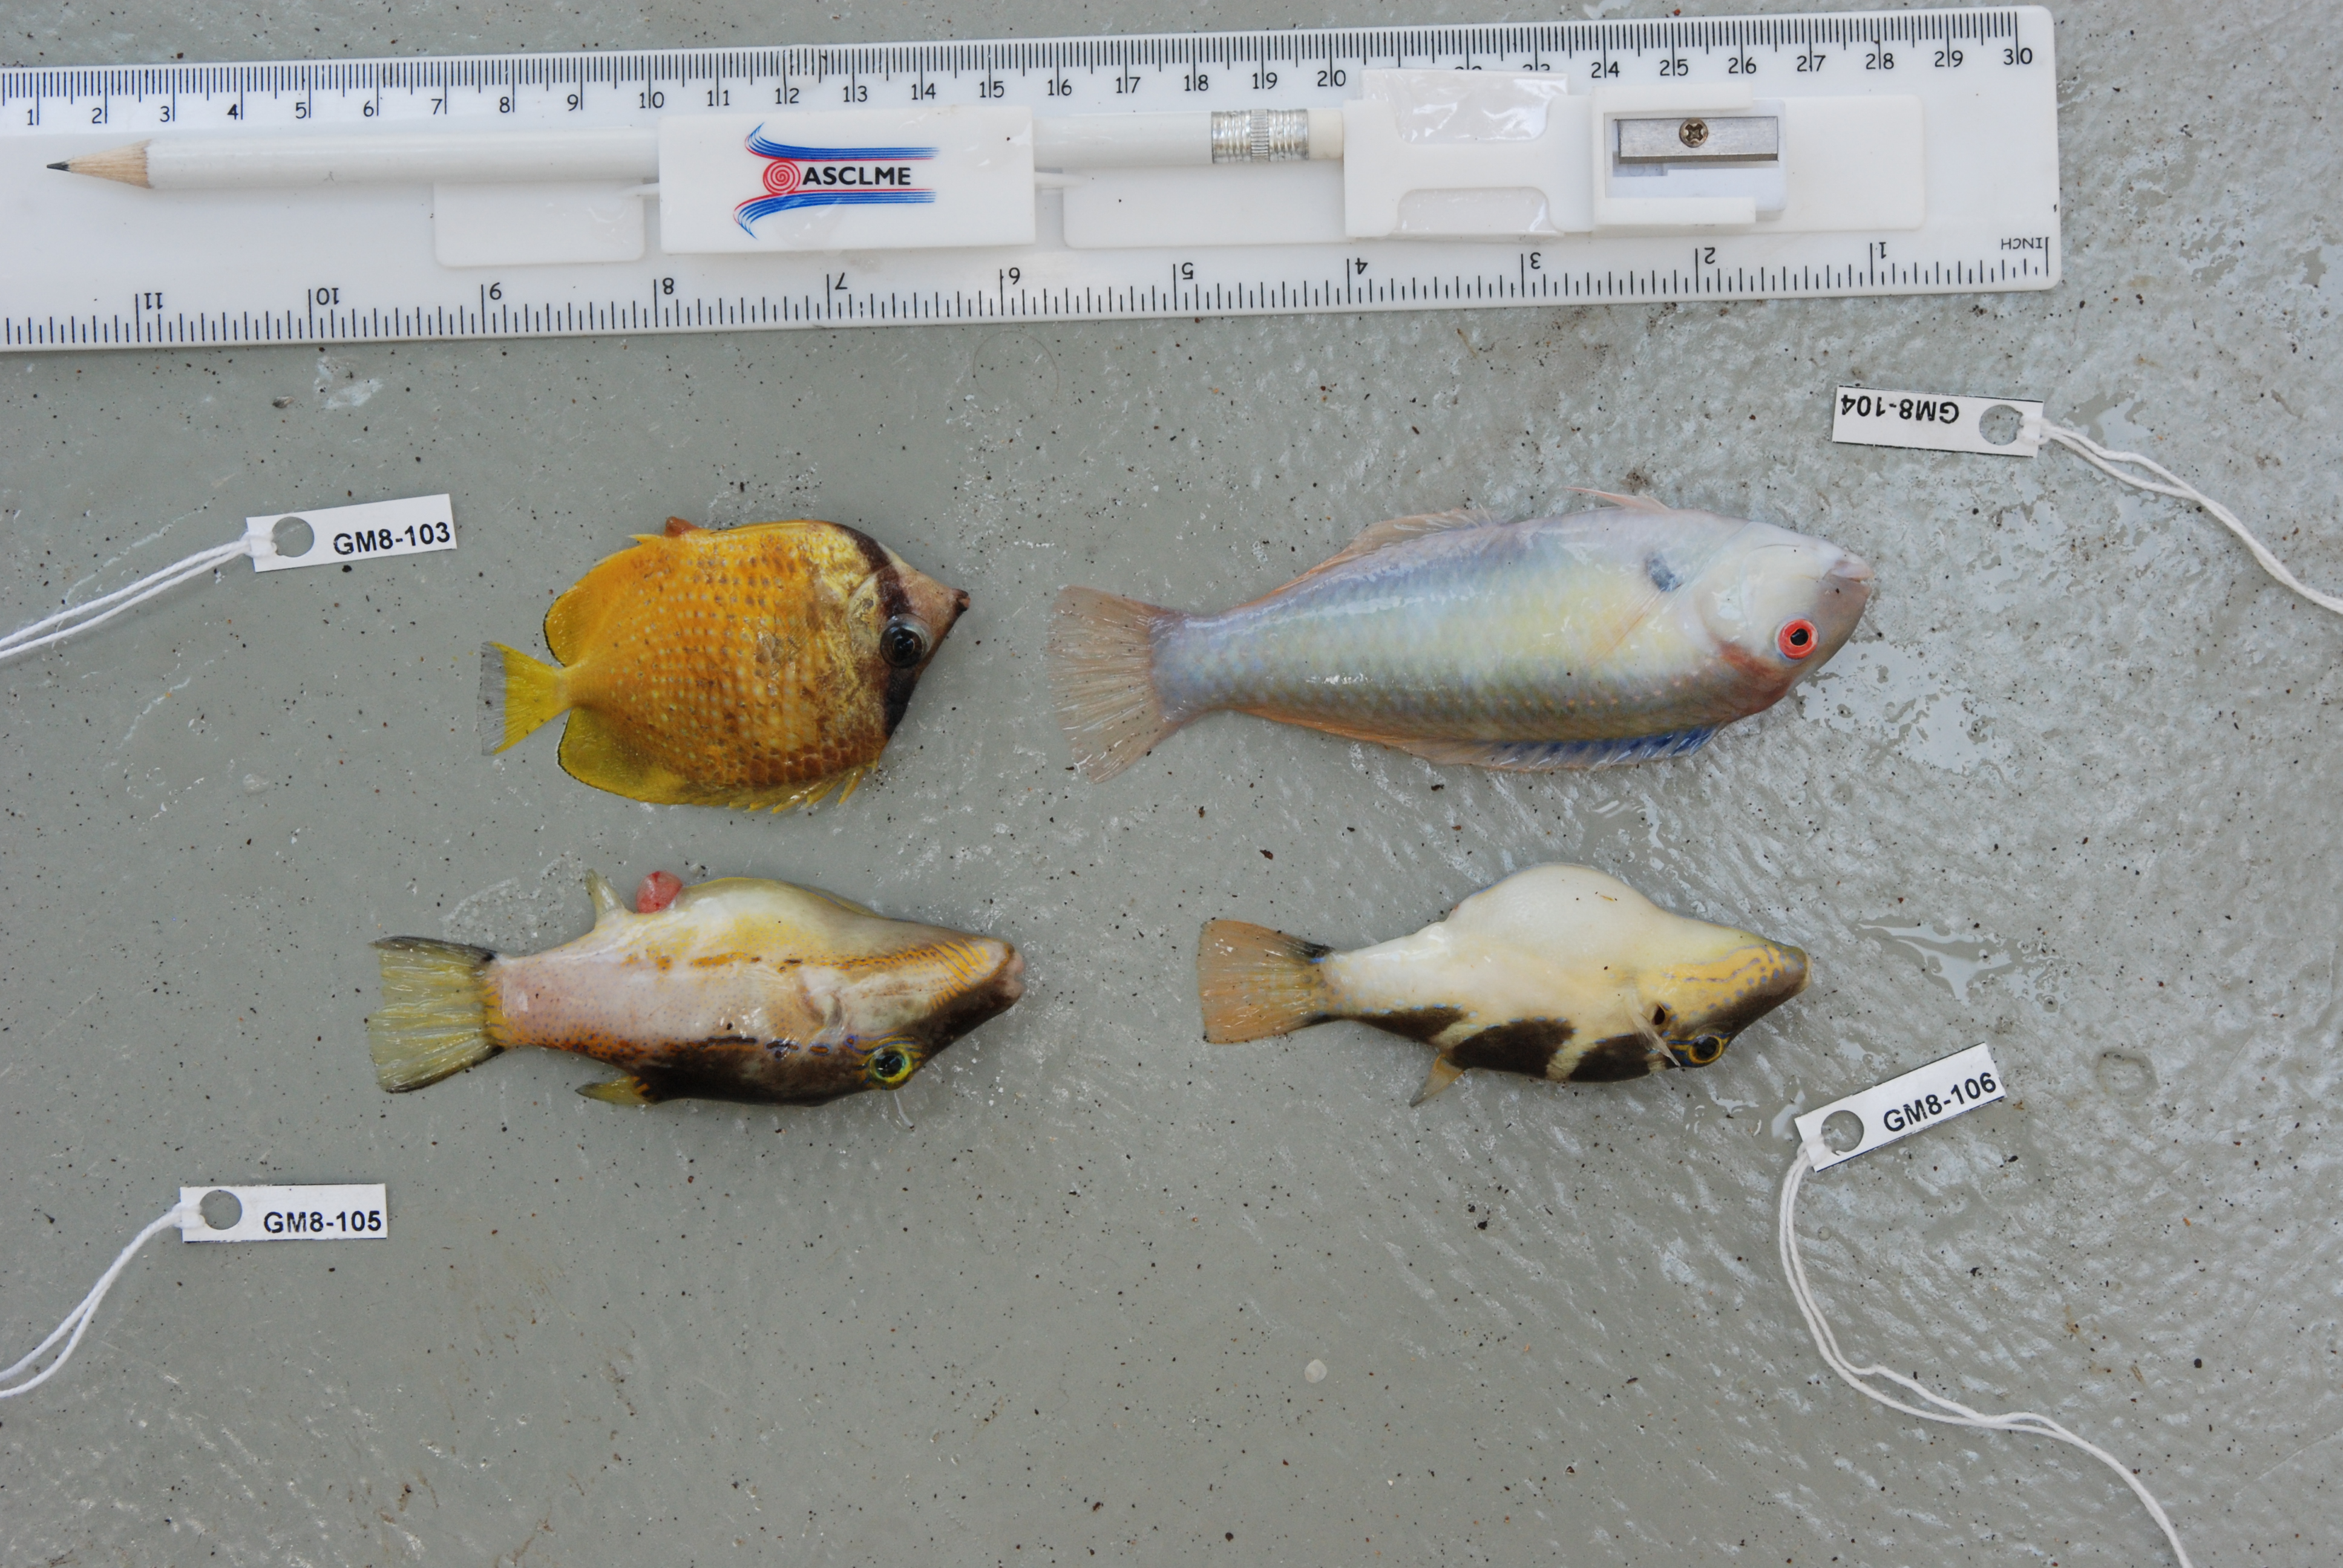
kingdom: Animalia
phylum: Chordata
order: Tetraodontiformes
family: Tetraodontidae
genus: Canthigaster
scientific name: Canthigaster coronata
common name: Crown toby
